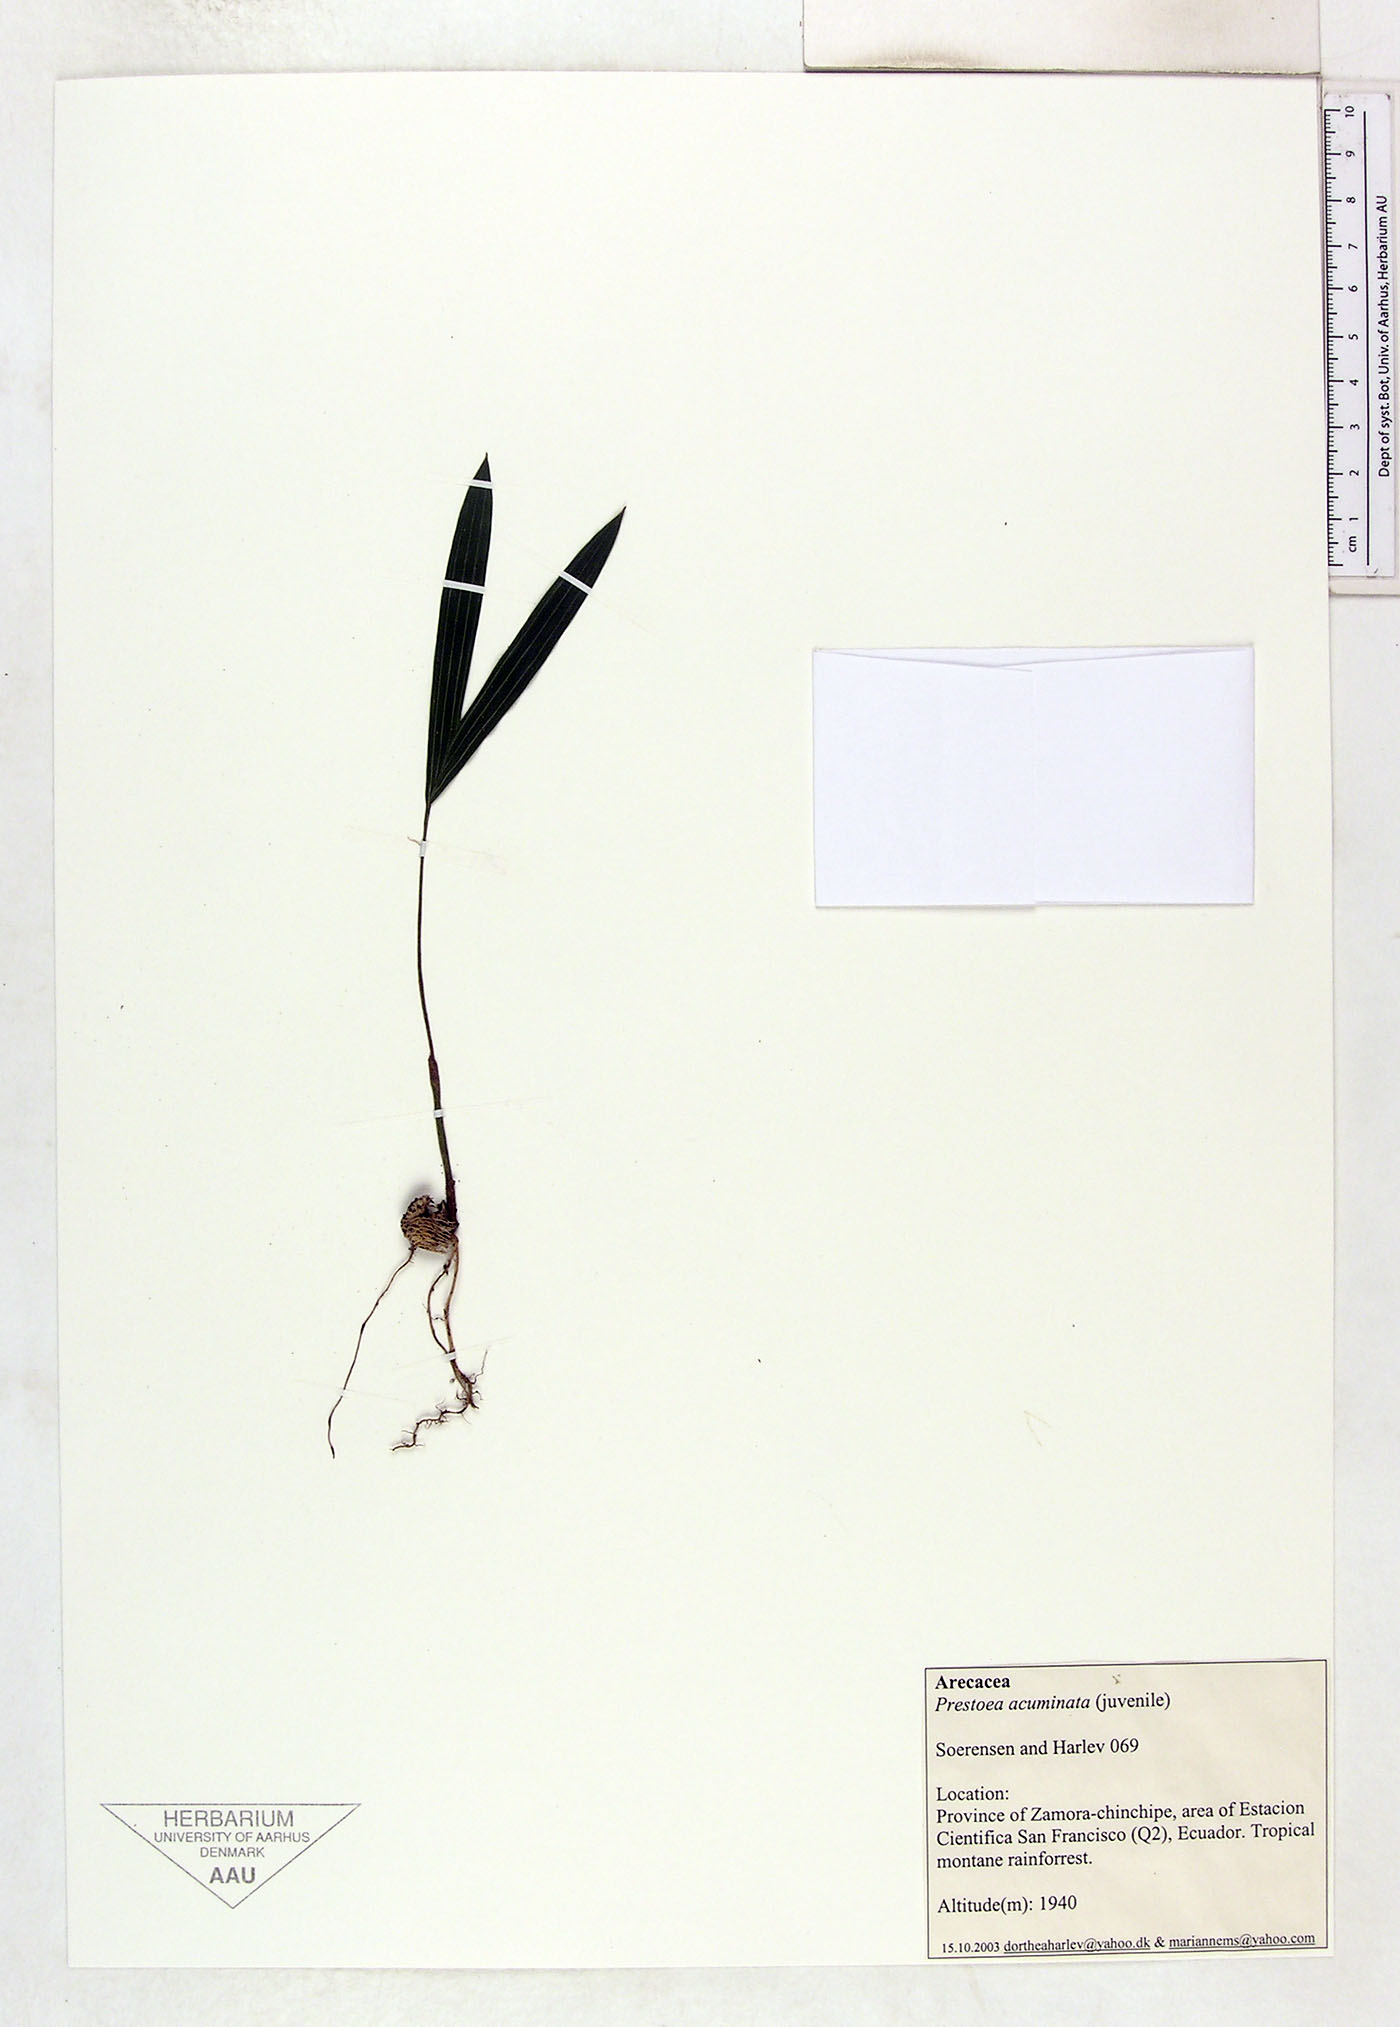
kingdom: Plantae
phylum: Tracheophyta
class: Liliopsida
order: Arecales
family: Arecaceae
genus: Prestoea
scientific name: Prestoea acuminata
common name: Sierran palm
